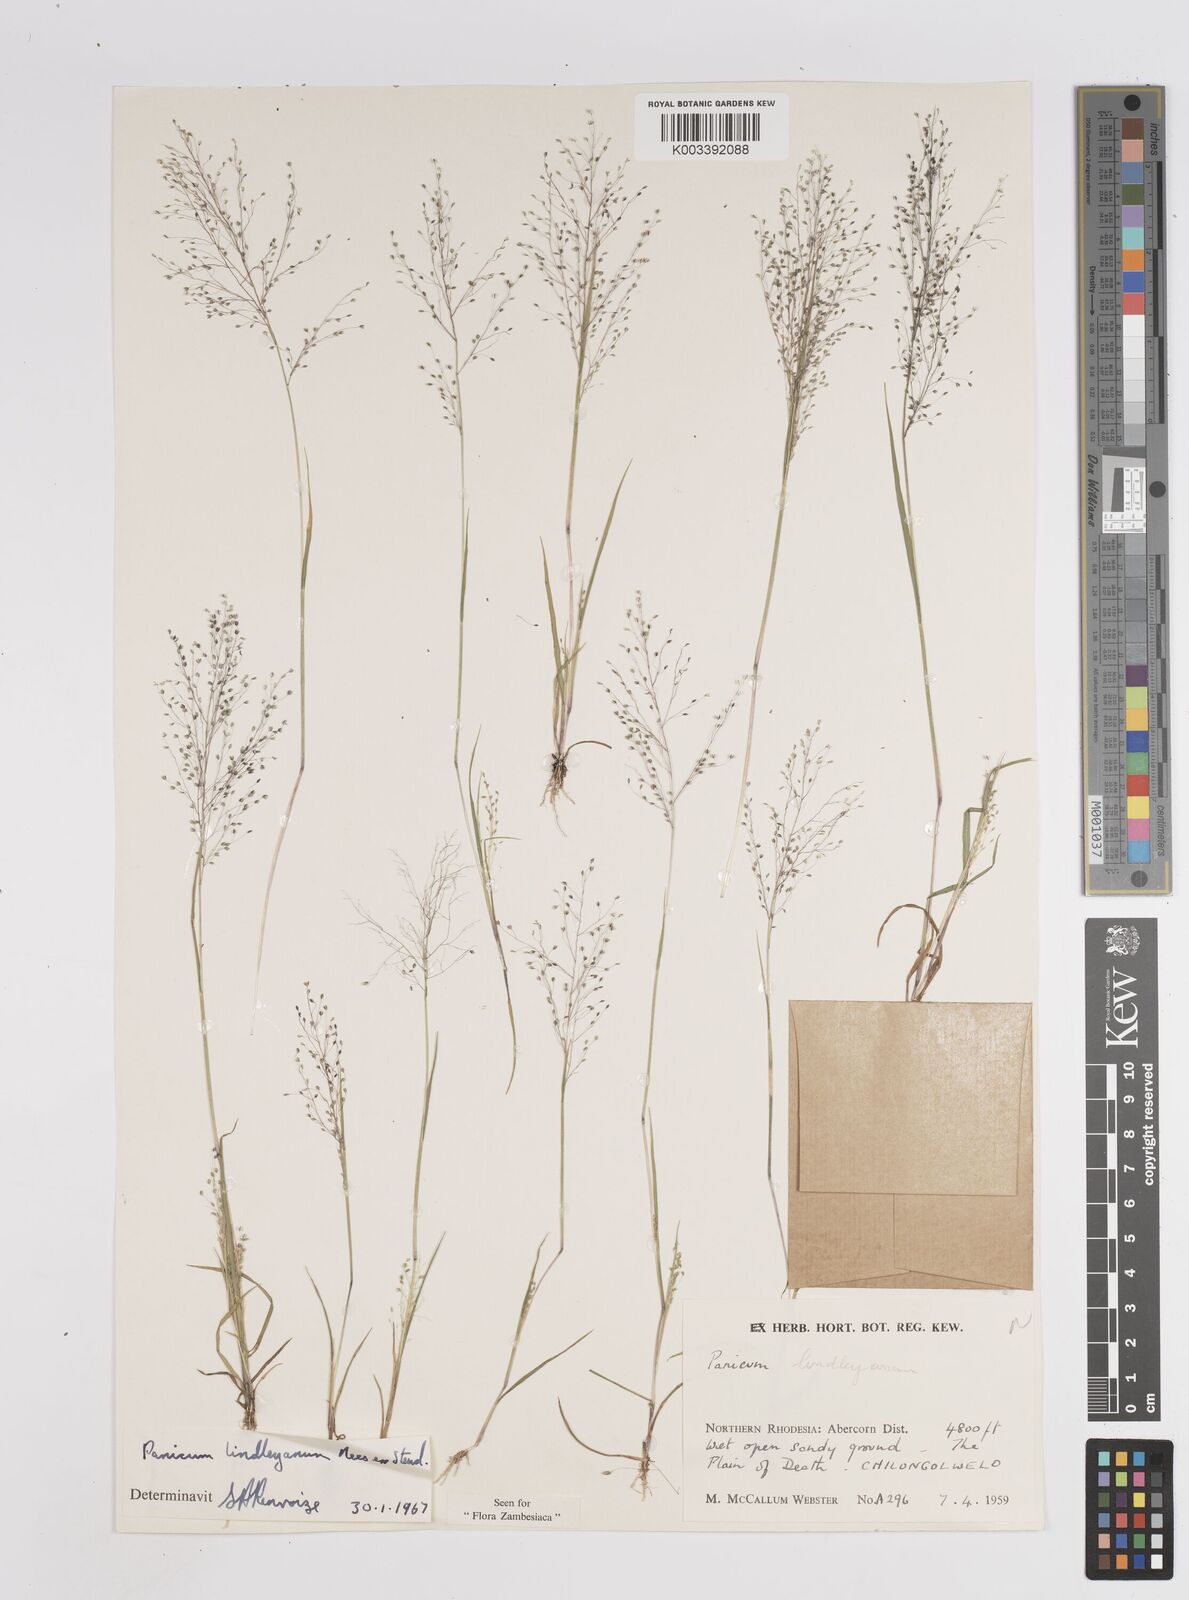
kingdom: Plantae
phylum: Tracheophyta
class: Liliopsida
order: Poales
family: Poaceae
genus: Trichanthecium
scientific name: Trichanthecium tenellum
